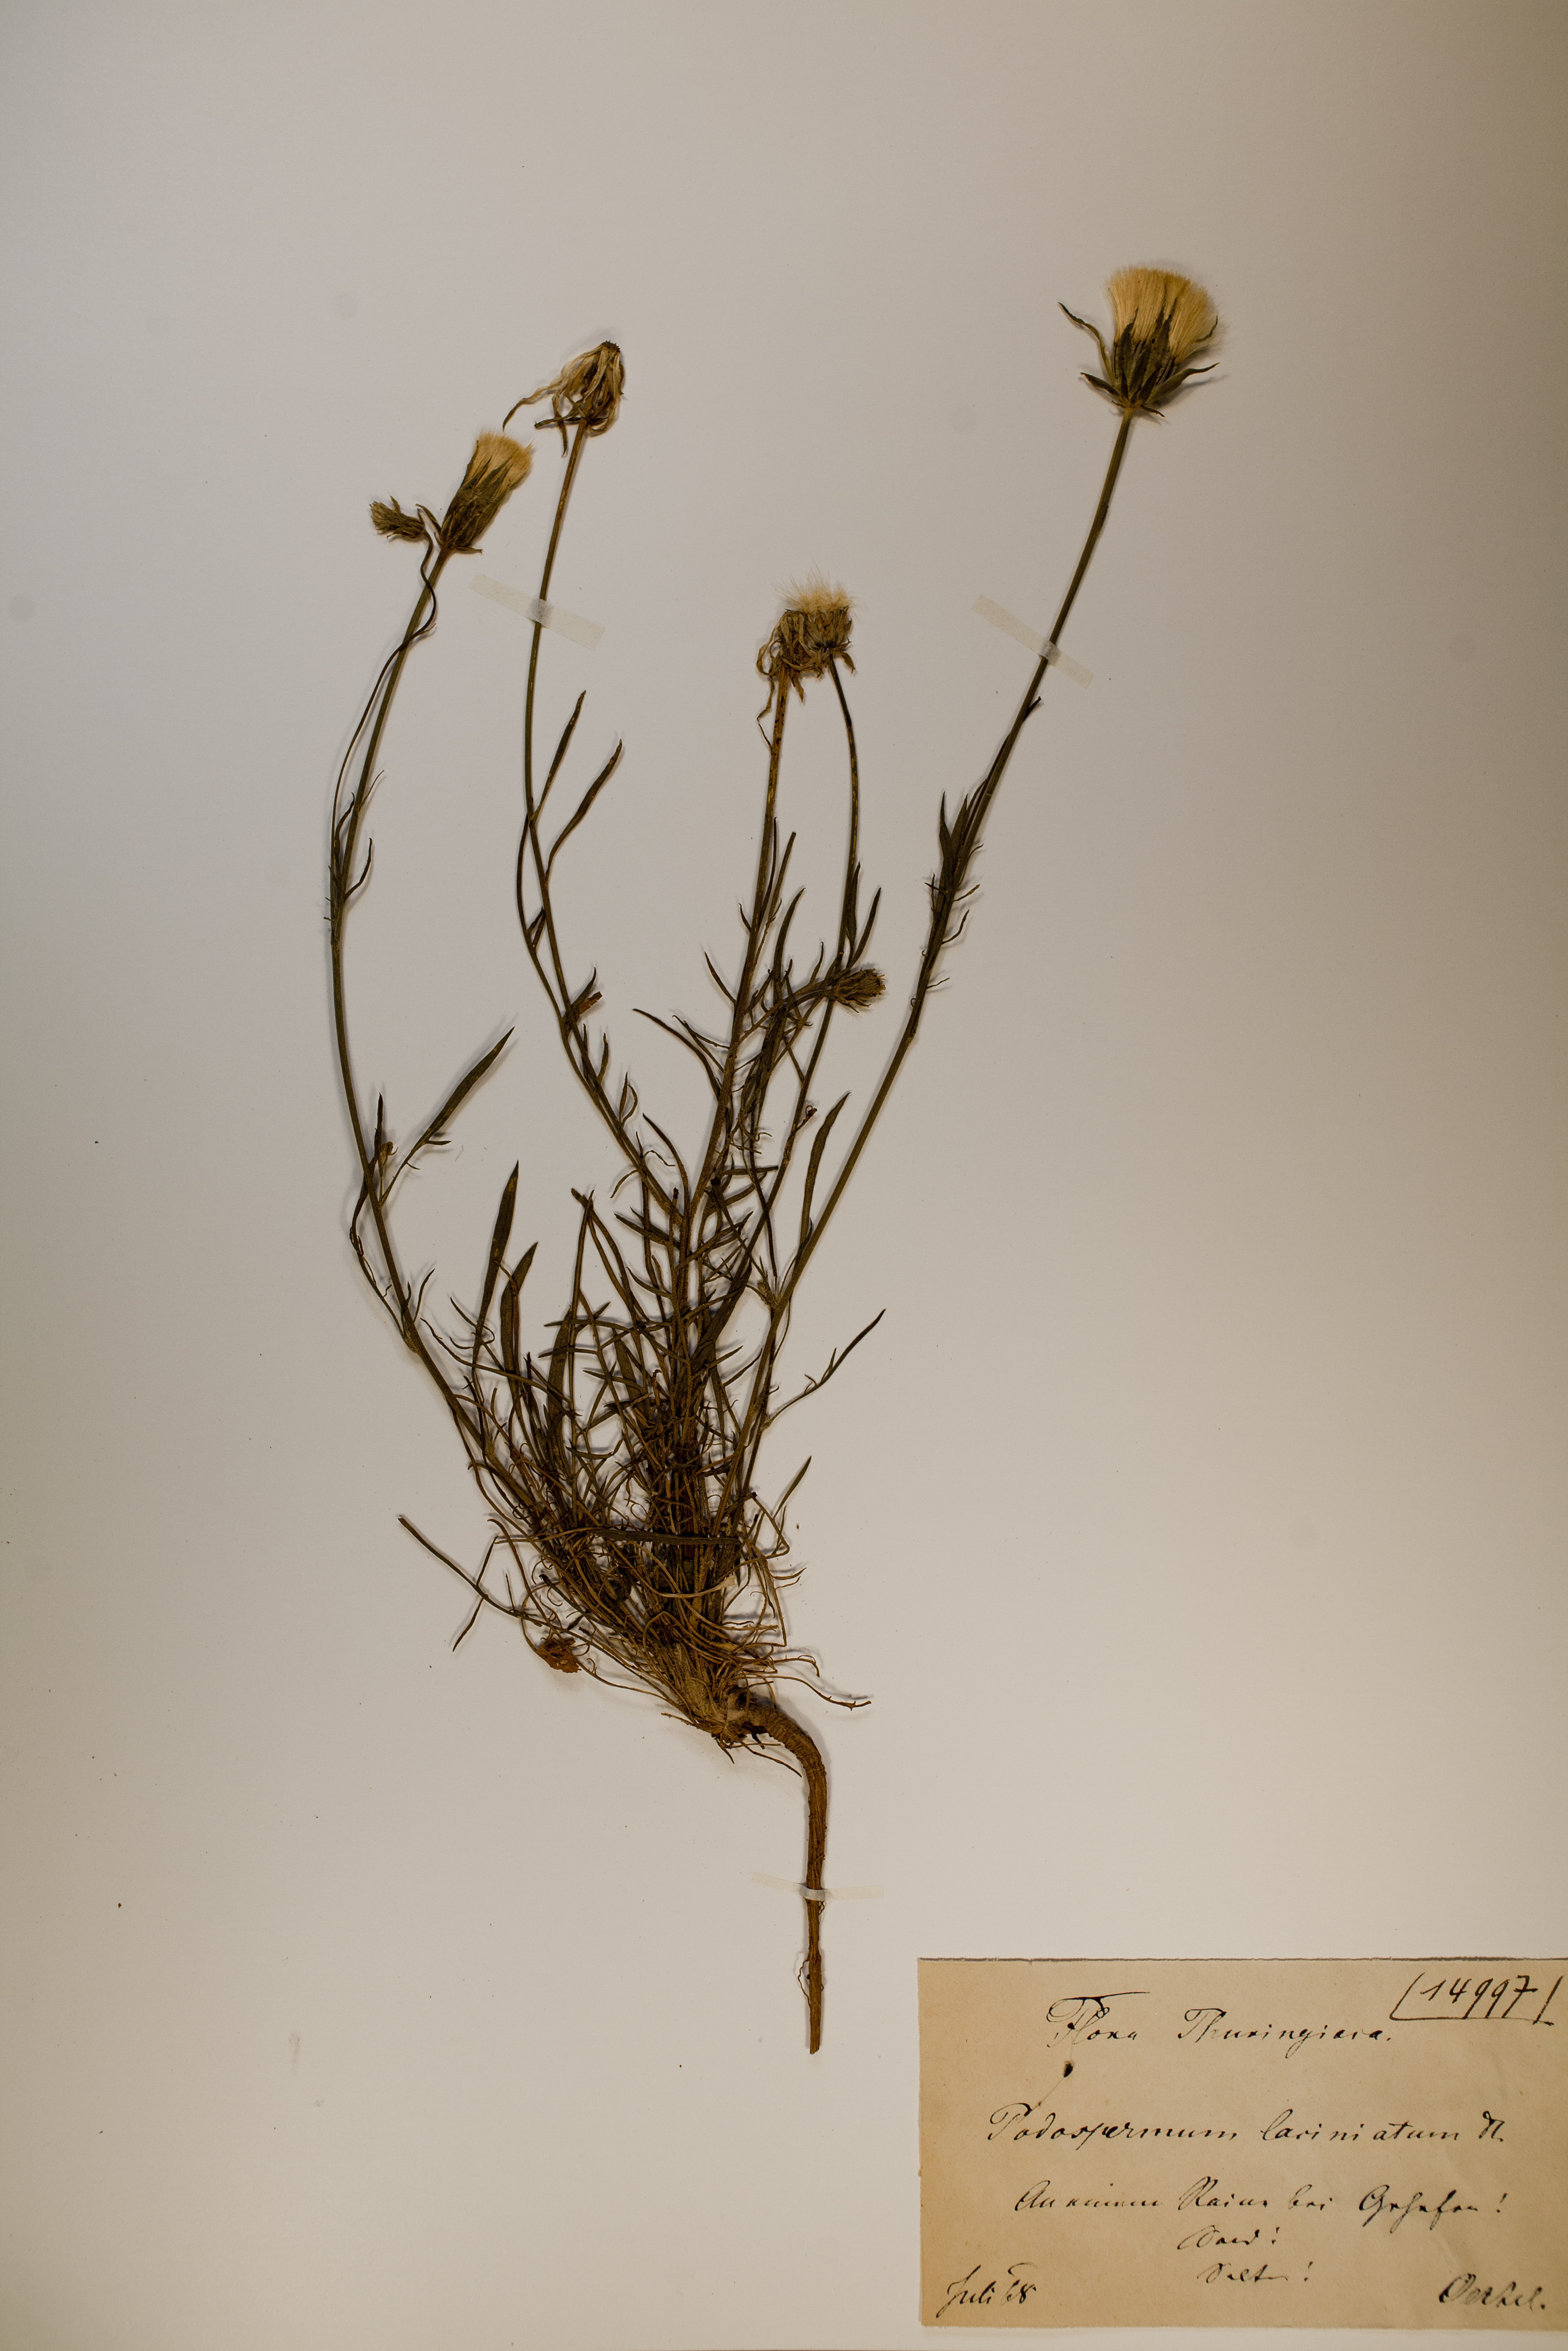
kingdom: Plantae
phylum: Tracheophyta
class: Magnoliopsida
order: Asterales
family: Asteraceae
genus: Scorzonera
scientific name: Scorzonera laciniata
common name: Cutleaf vipergrass
